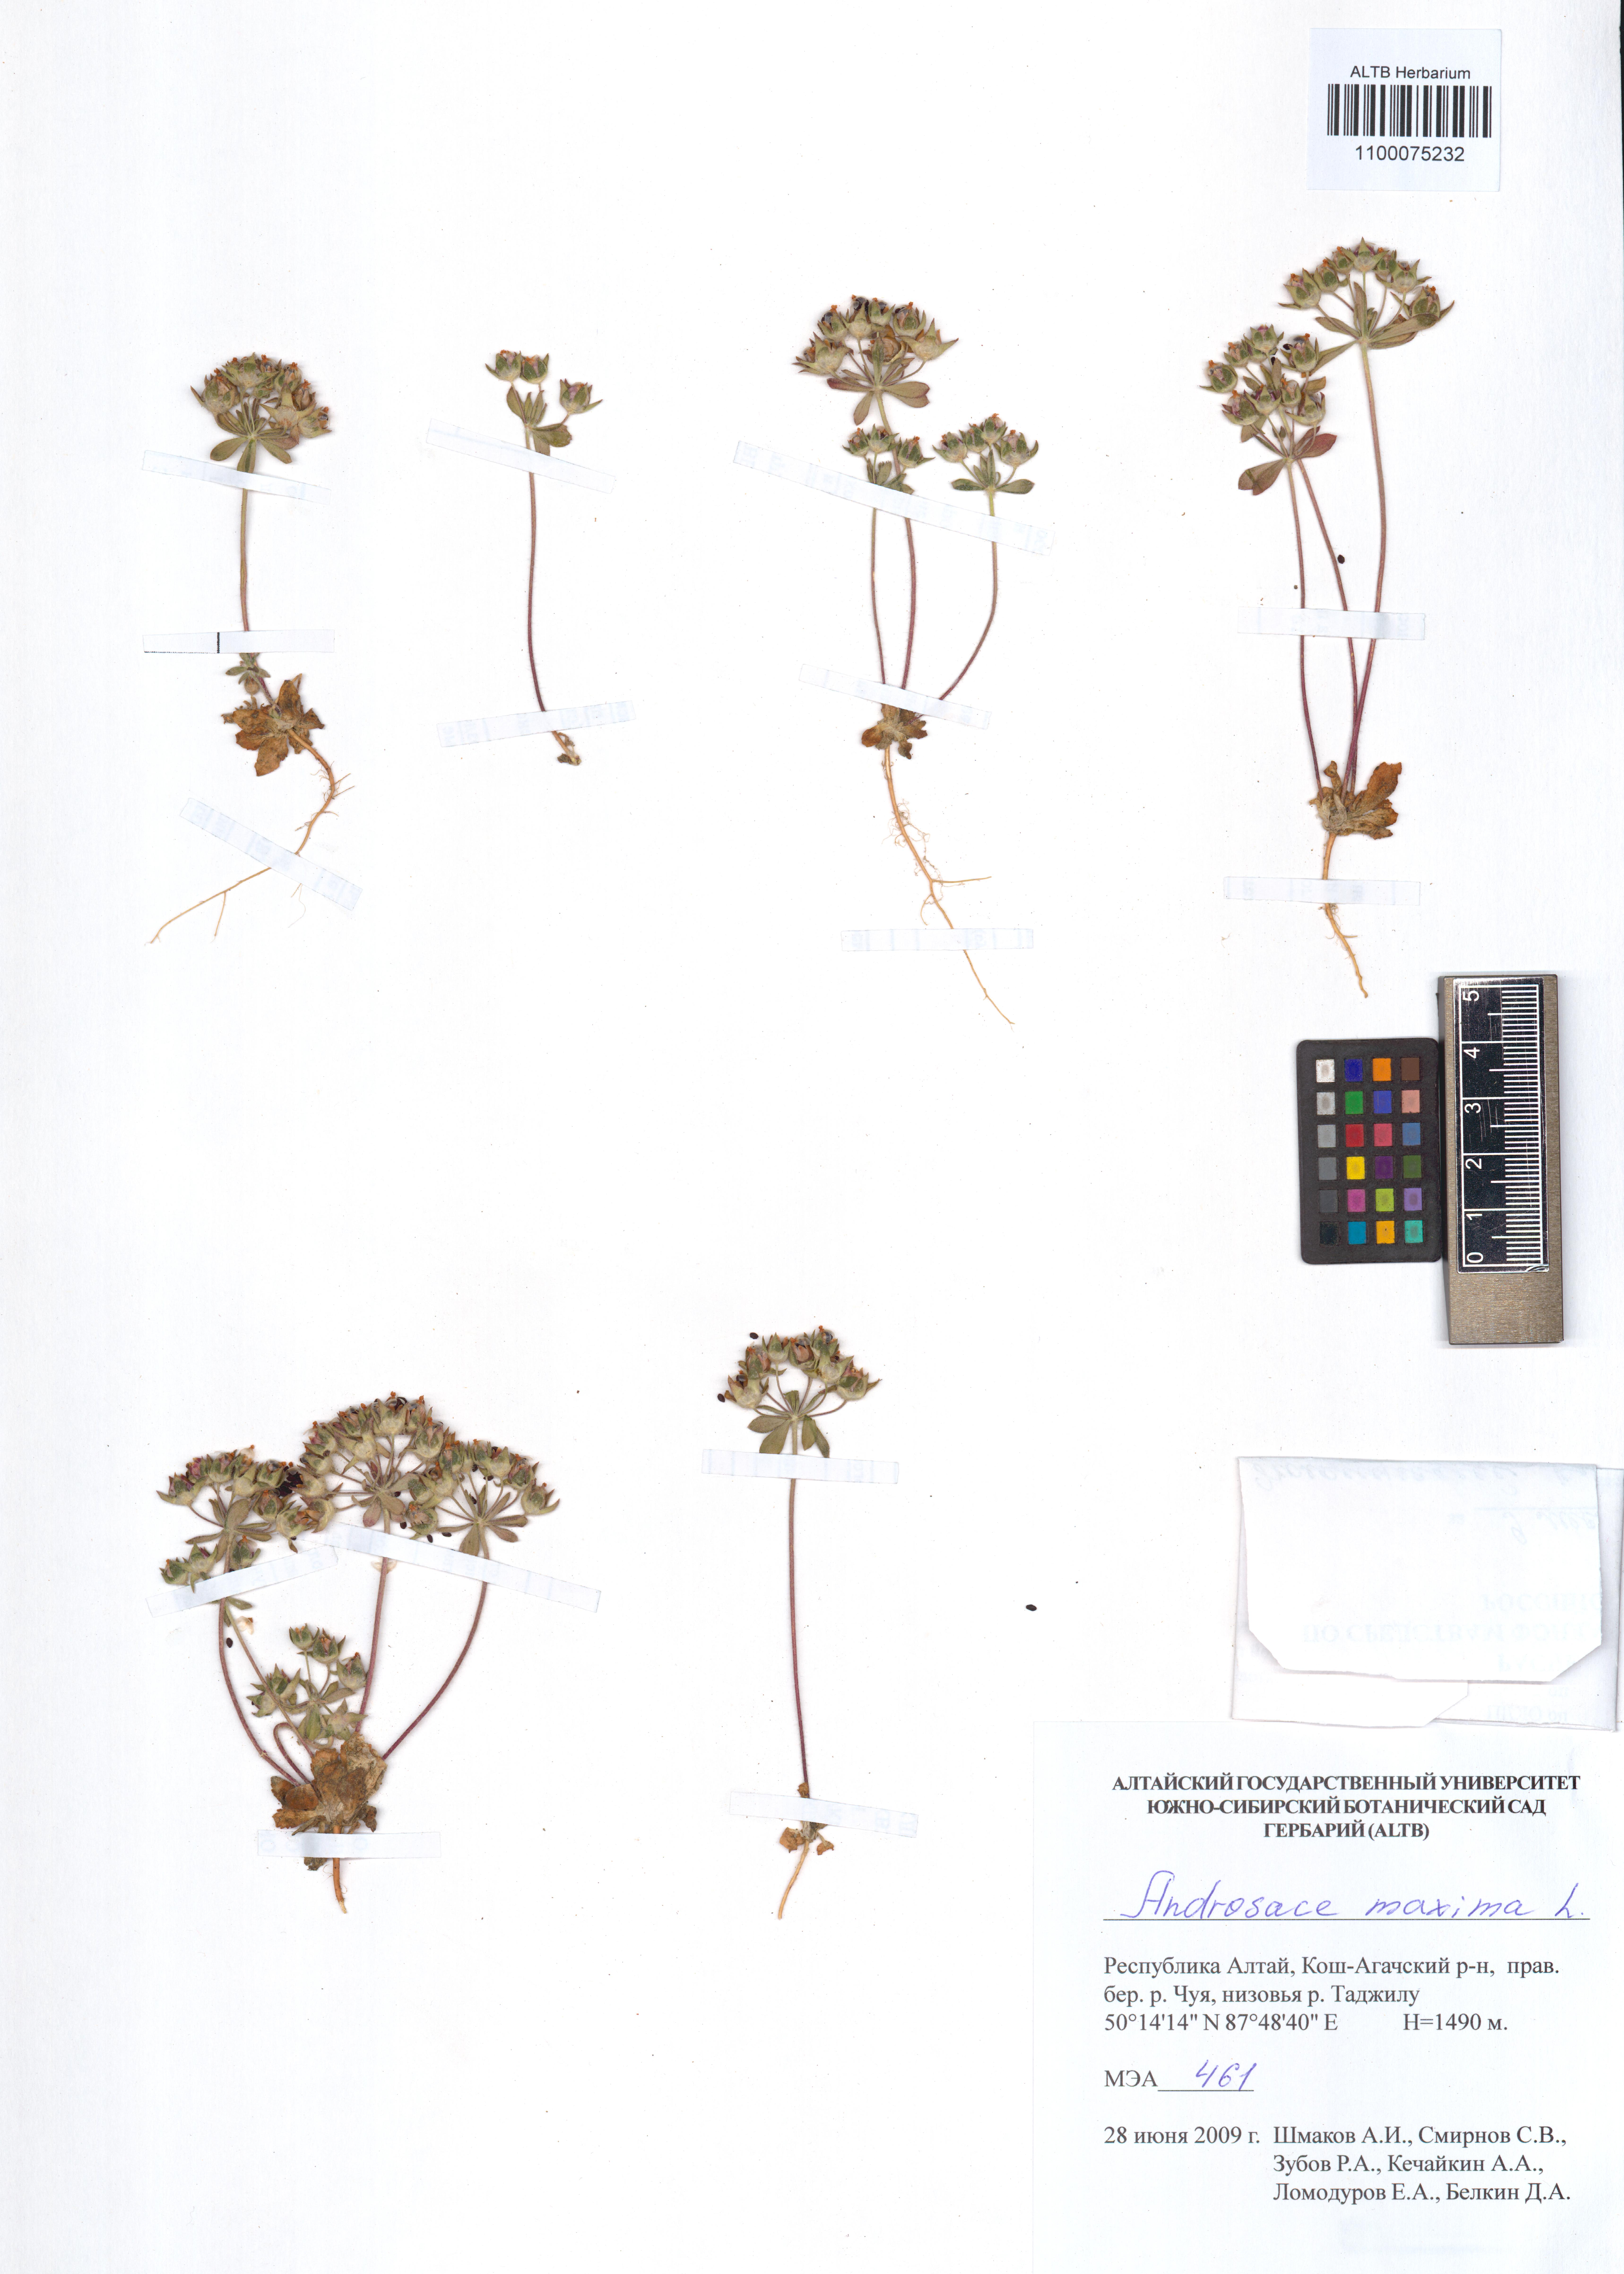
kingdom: Plantae
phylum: Tracheophyta
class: Magnoliopsida
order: Ericales
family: Primulaceae
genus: Androsace
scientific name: Androsace maxima
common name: Annual androsace
